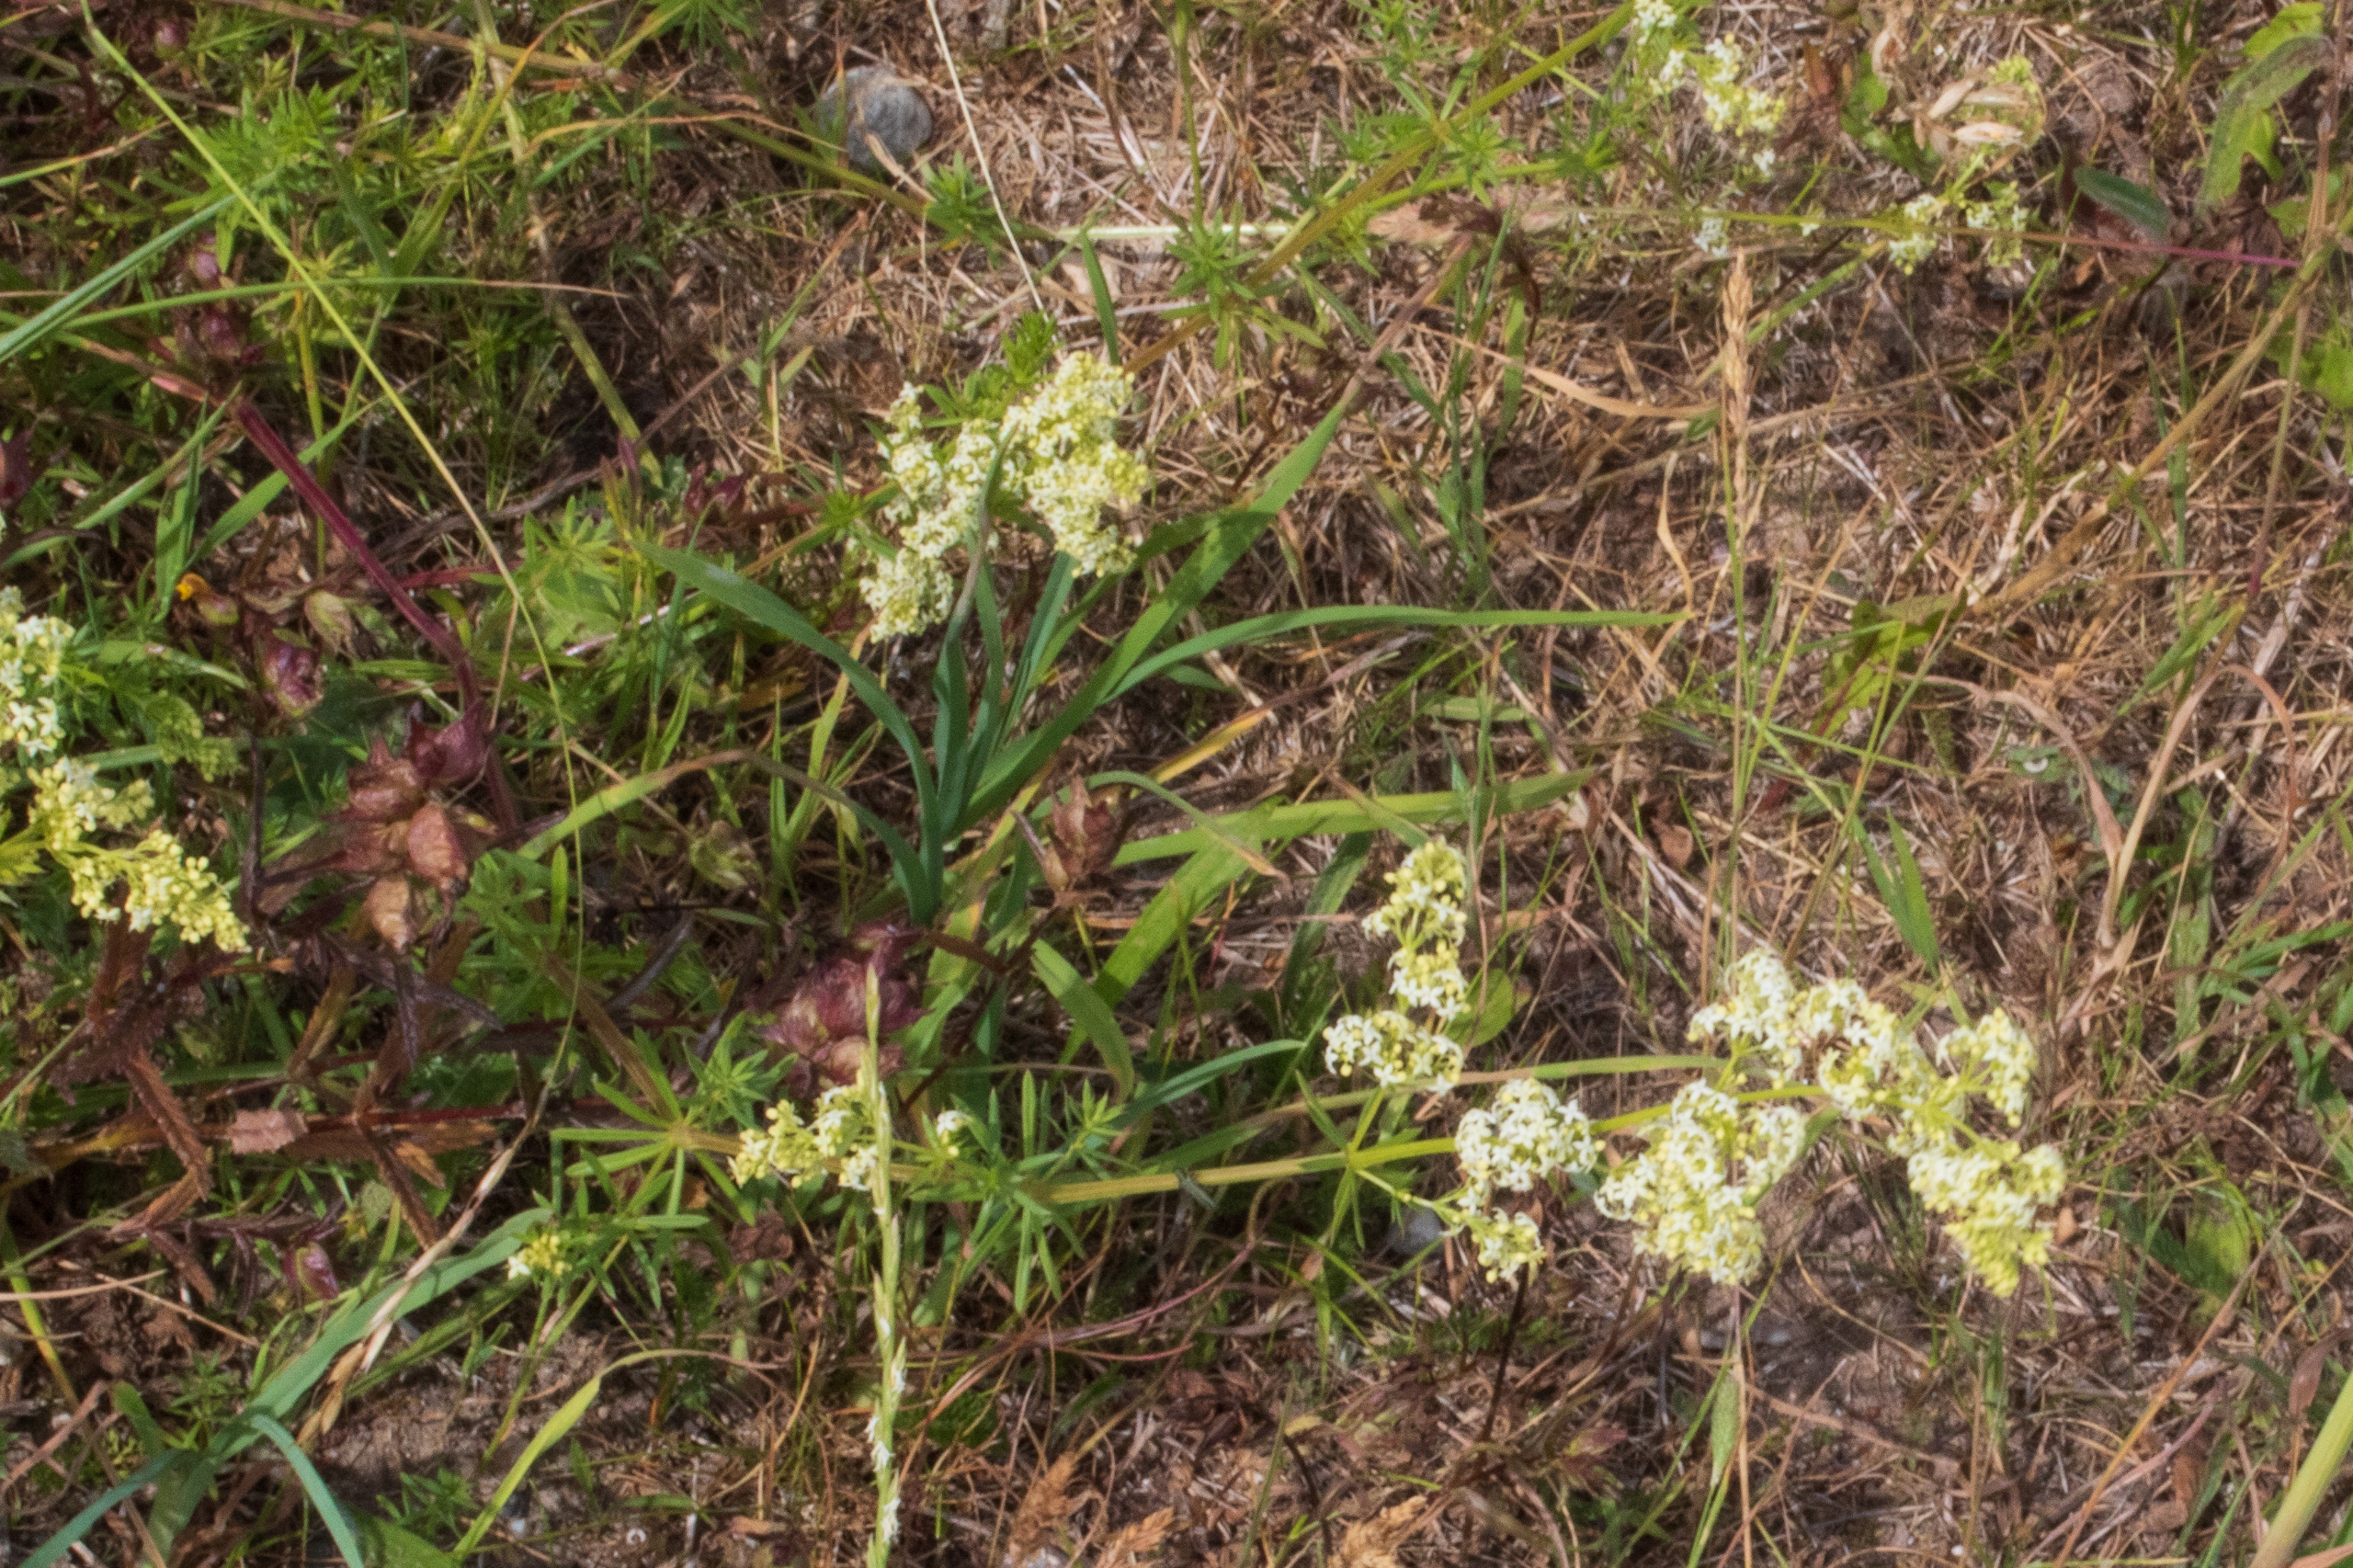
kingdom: Plantae
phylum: Tracheophyta
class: Magnoliopsida
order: Gentianales
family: Rubiaceae
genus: Galium
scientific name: Galium mollugo
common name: Hvid snerre
